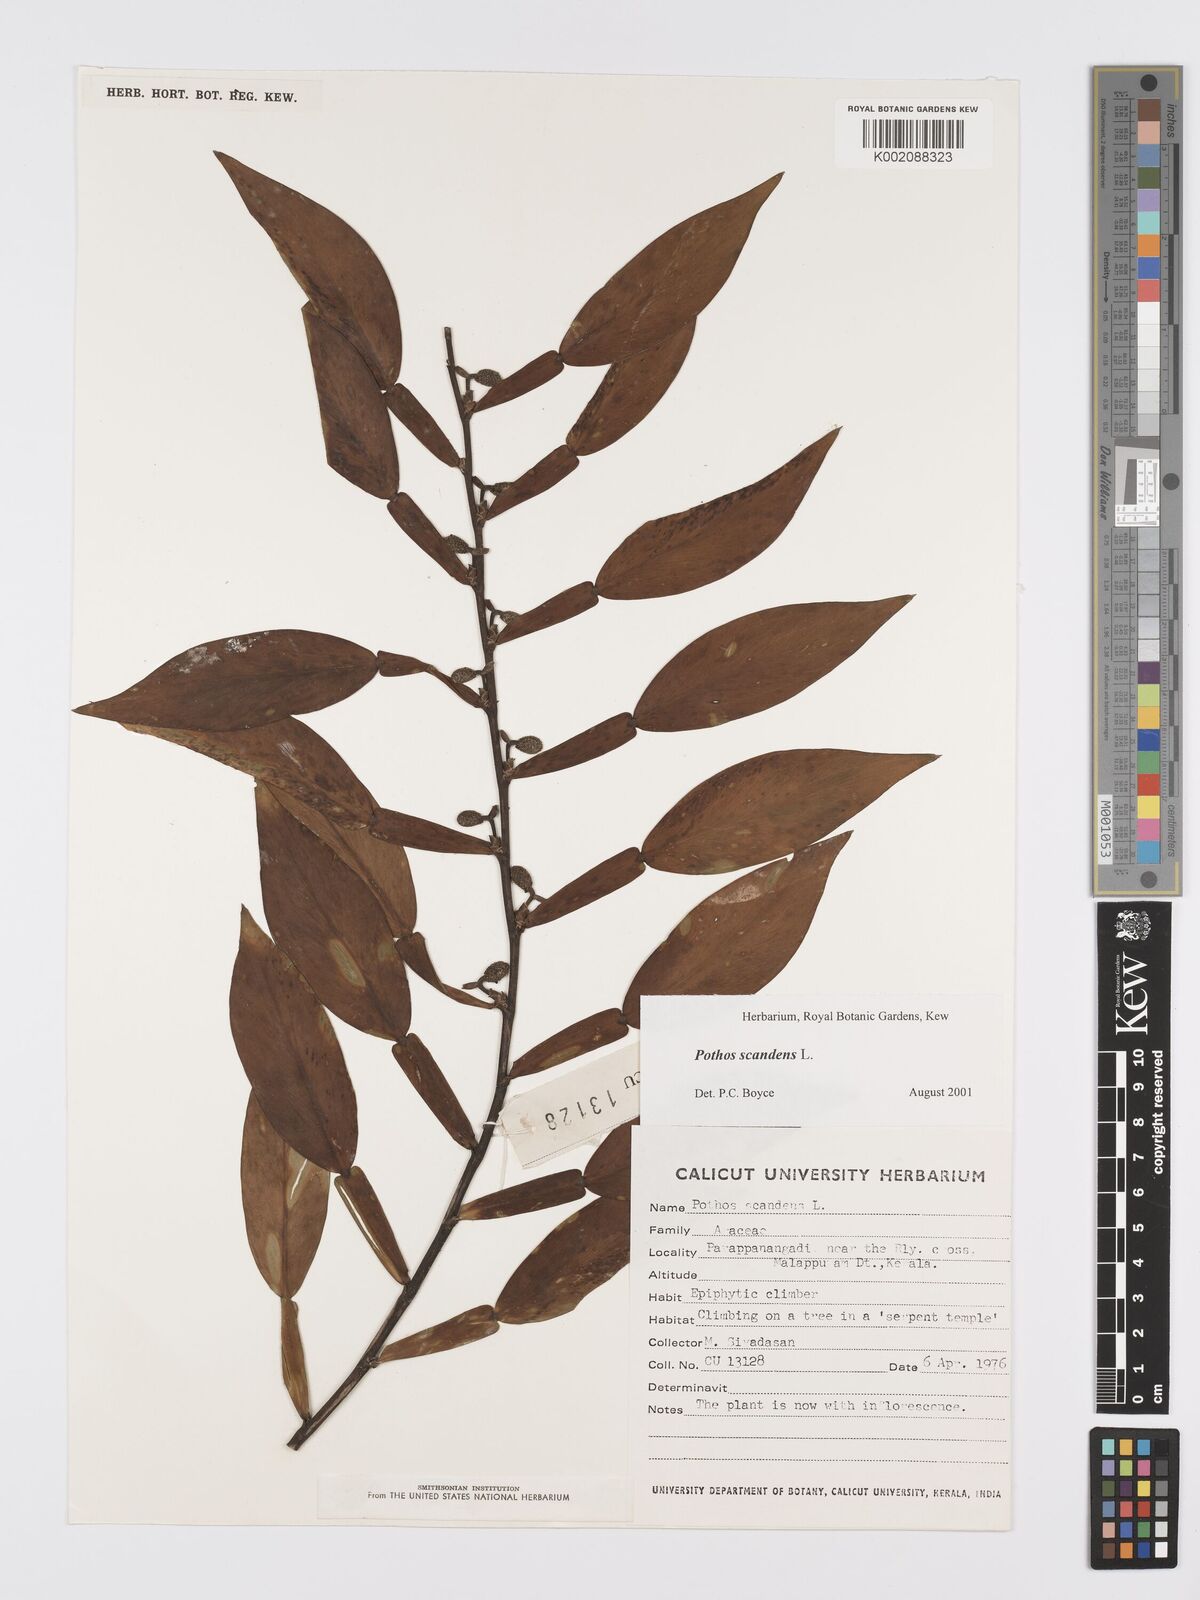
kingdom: Plantae
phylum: Tracheophyta
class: Liliopsida
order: Alismatales
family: Araceae
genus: Pothos
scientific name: Pothos scandens
